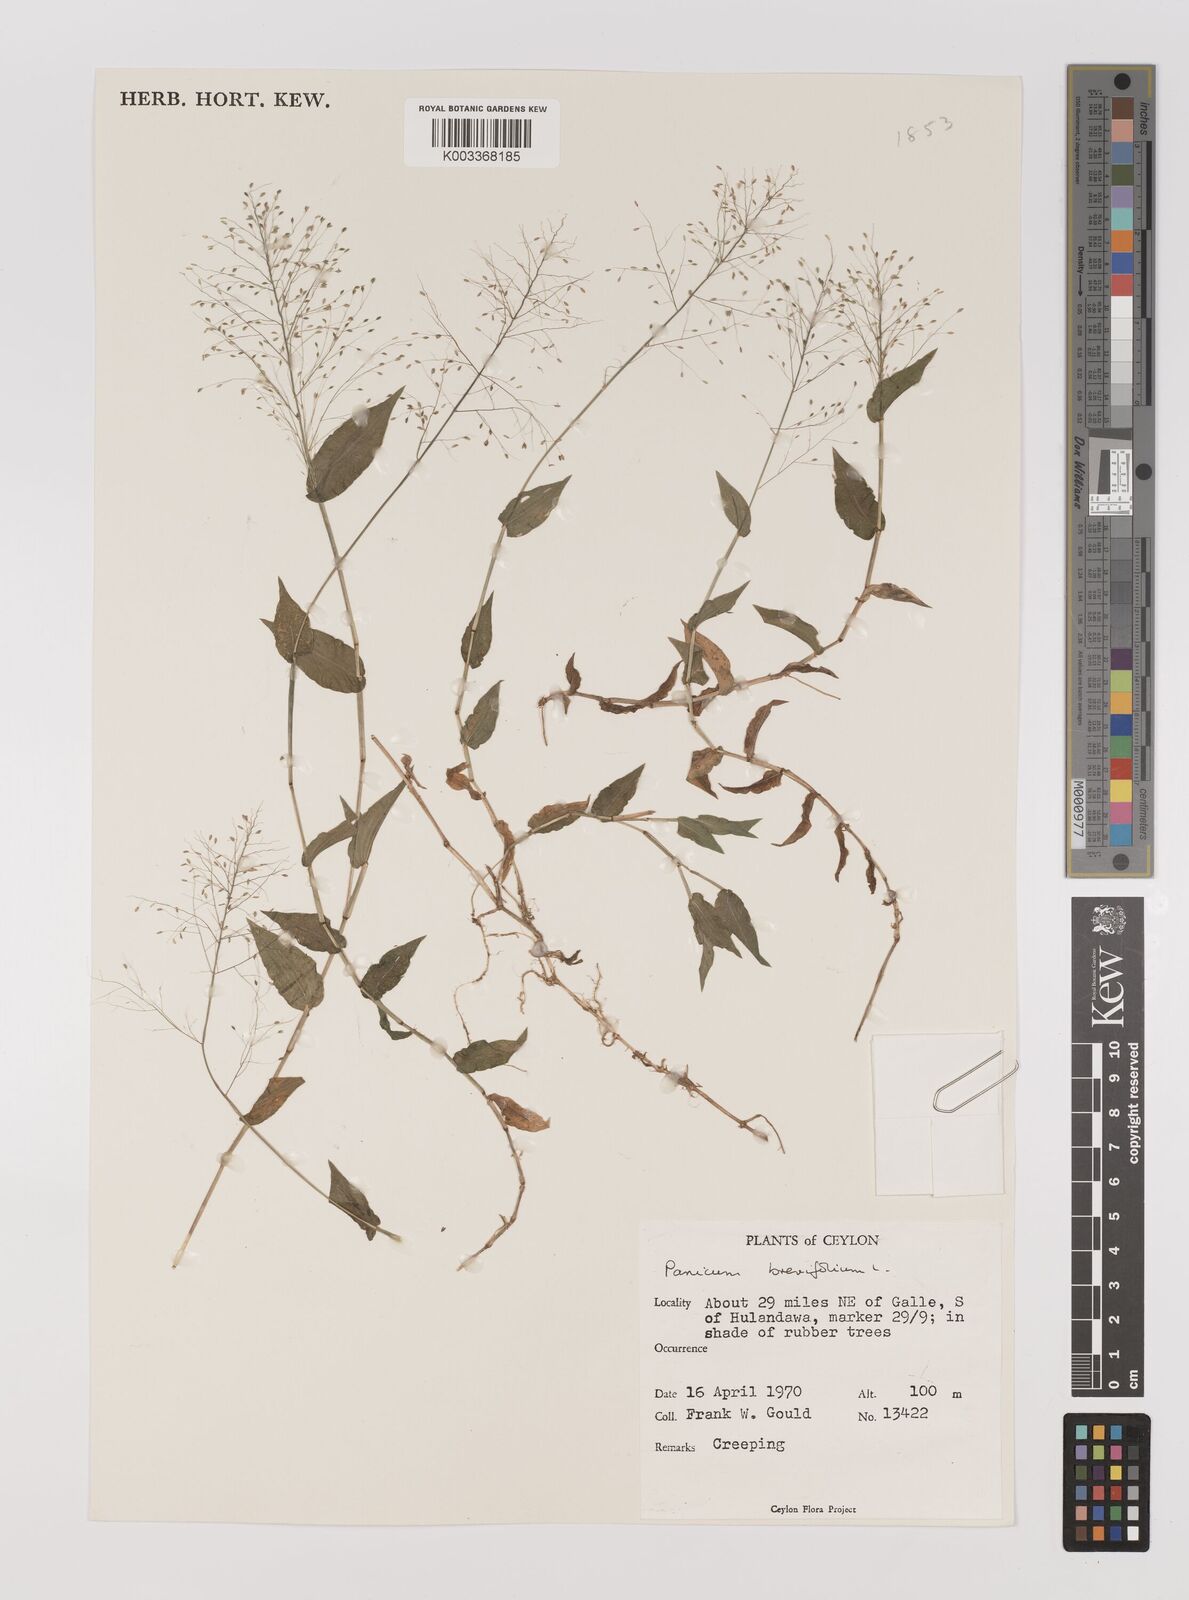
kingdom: Plantae
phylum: Tracheophyta
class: Liliopsida
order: Poales
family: Poaceae
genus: Panicum
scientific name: Panicum brevifolium
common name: Shortleaf panic grass
